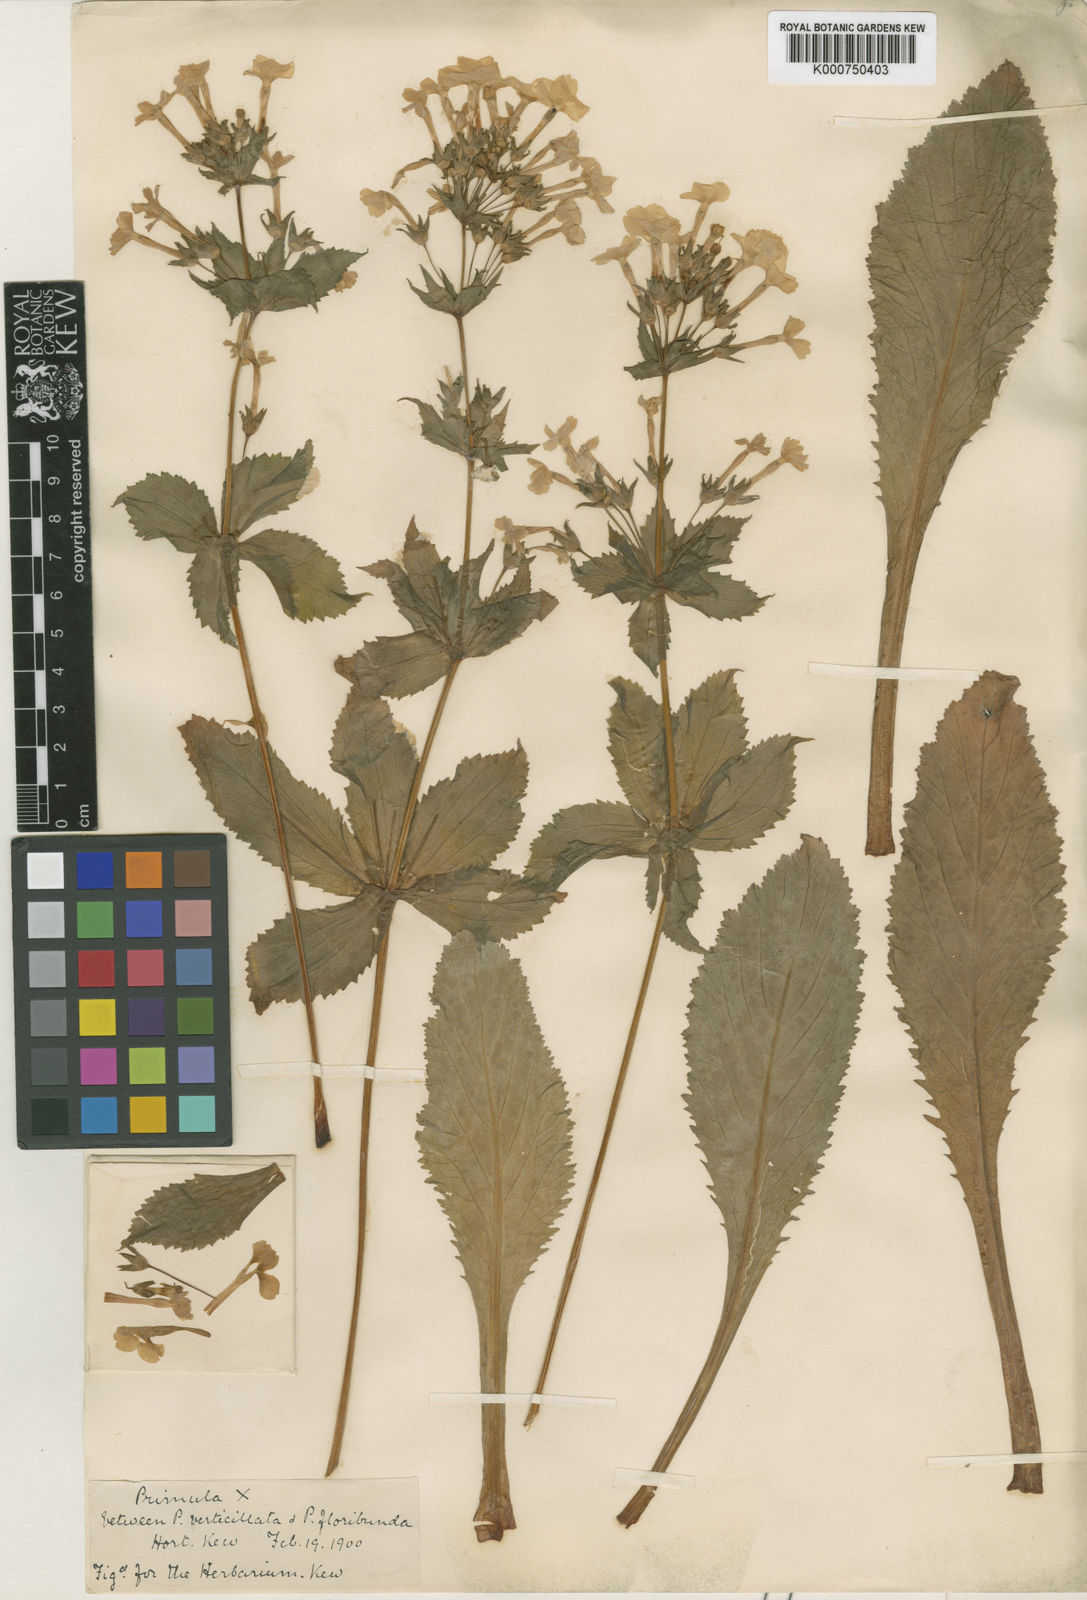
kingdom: Plantae
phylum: Tracheophyta
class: Magnoliopsida
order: Ericales
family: Primulaceae
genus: Primula
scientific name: Primula kewensis
